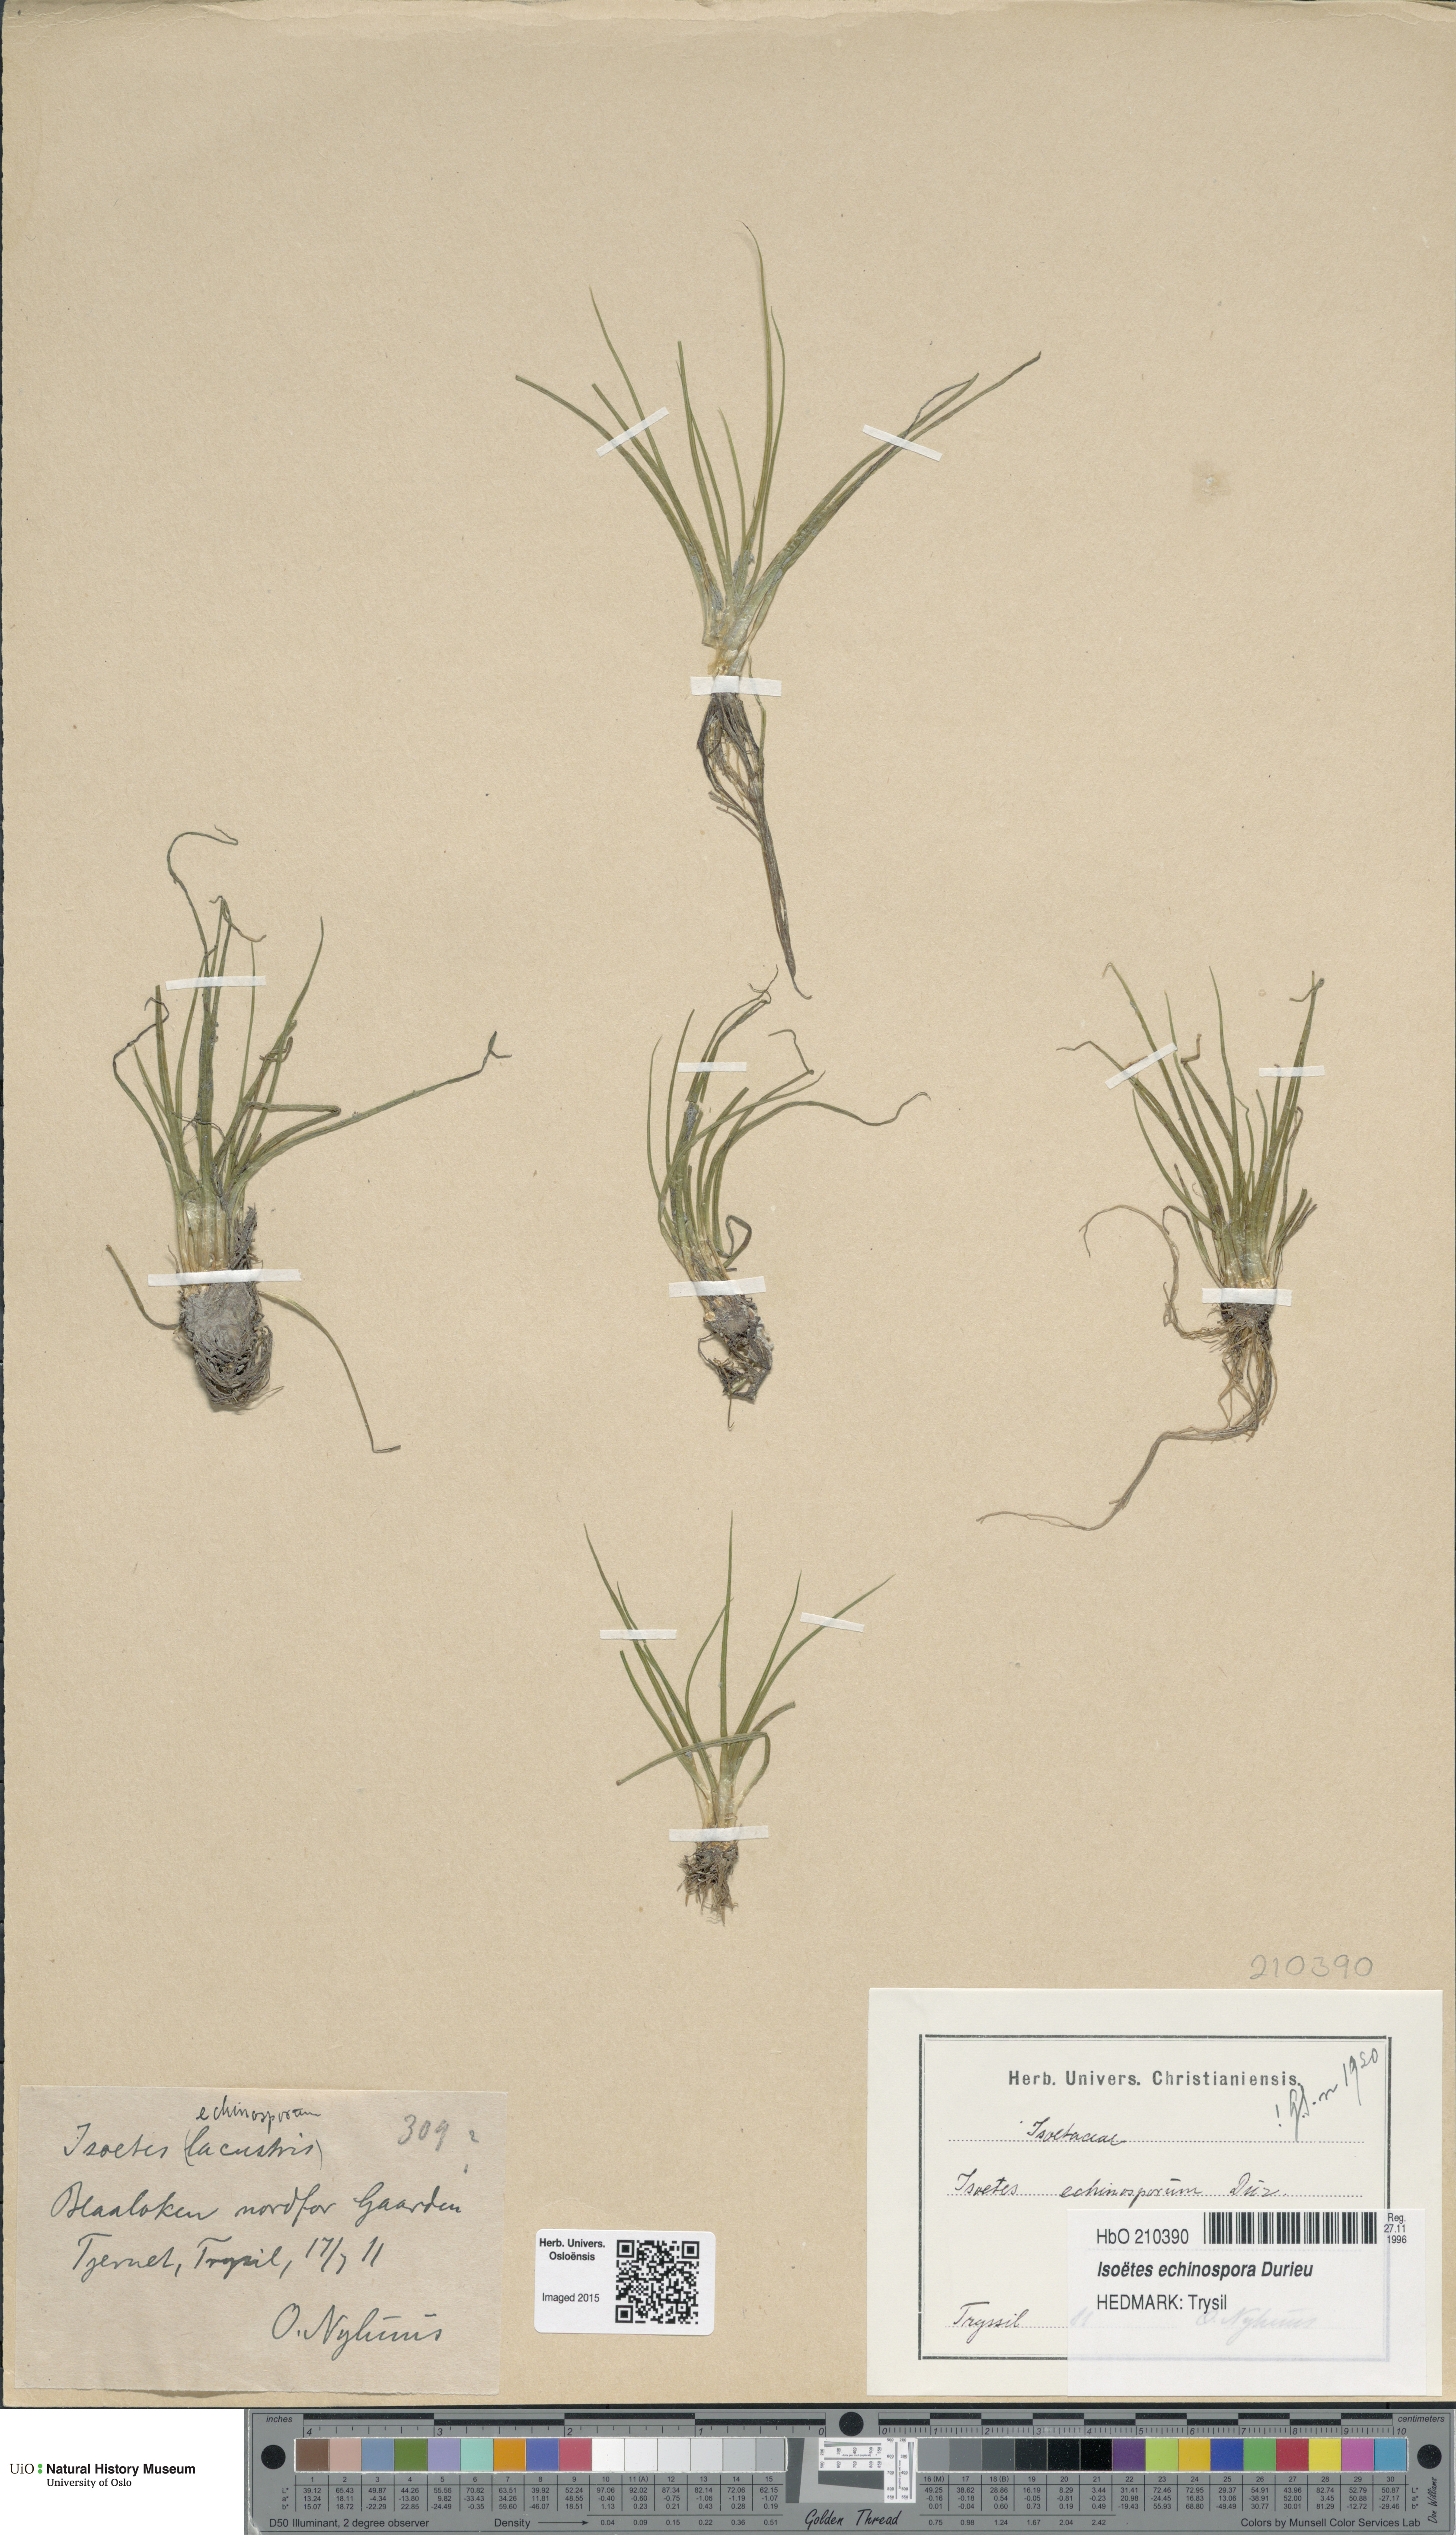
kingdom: Plantae
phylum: Tracheophyta
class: Lycopodiopsida
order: Isoetales
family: Isoetaceae
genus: Isoetes
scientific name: Isoetes echinospora
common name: Spring quillwort
